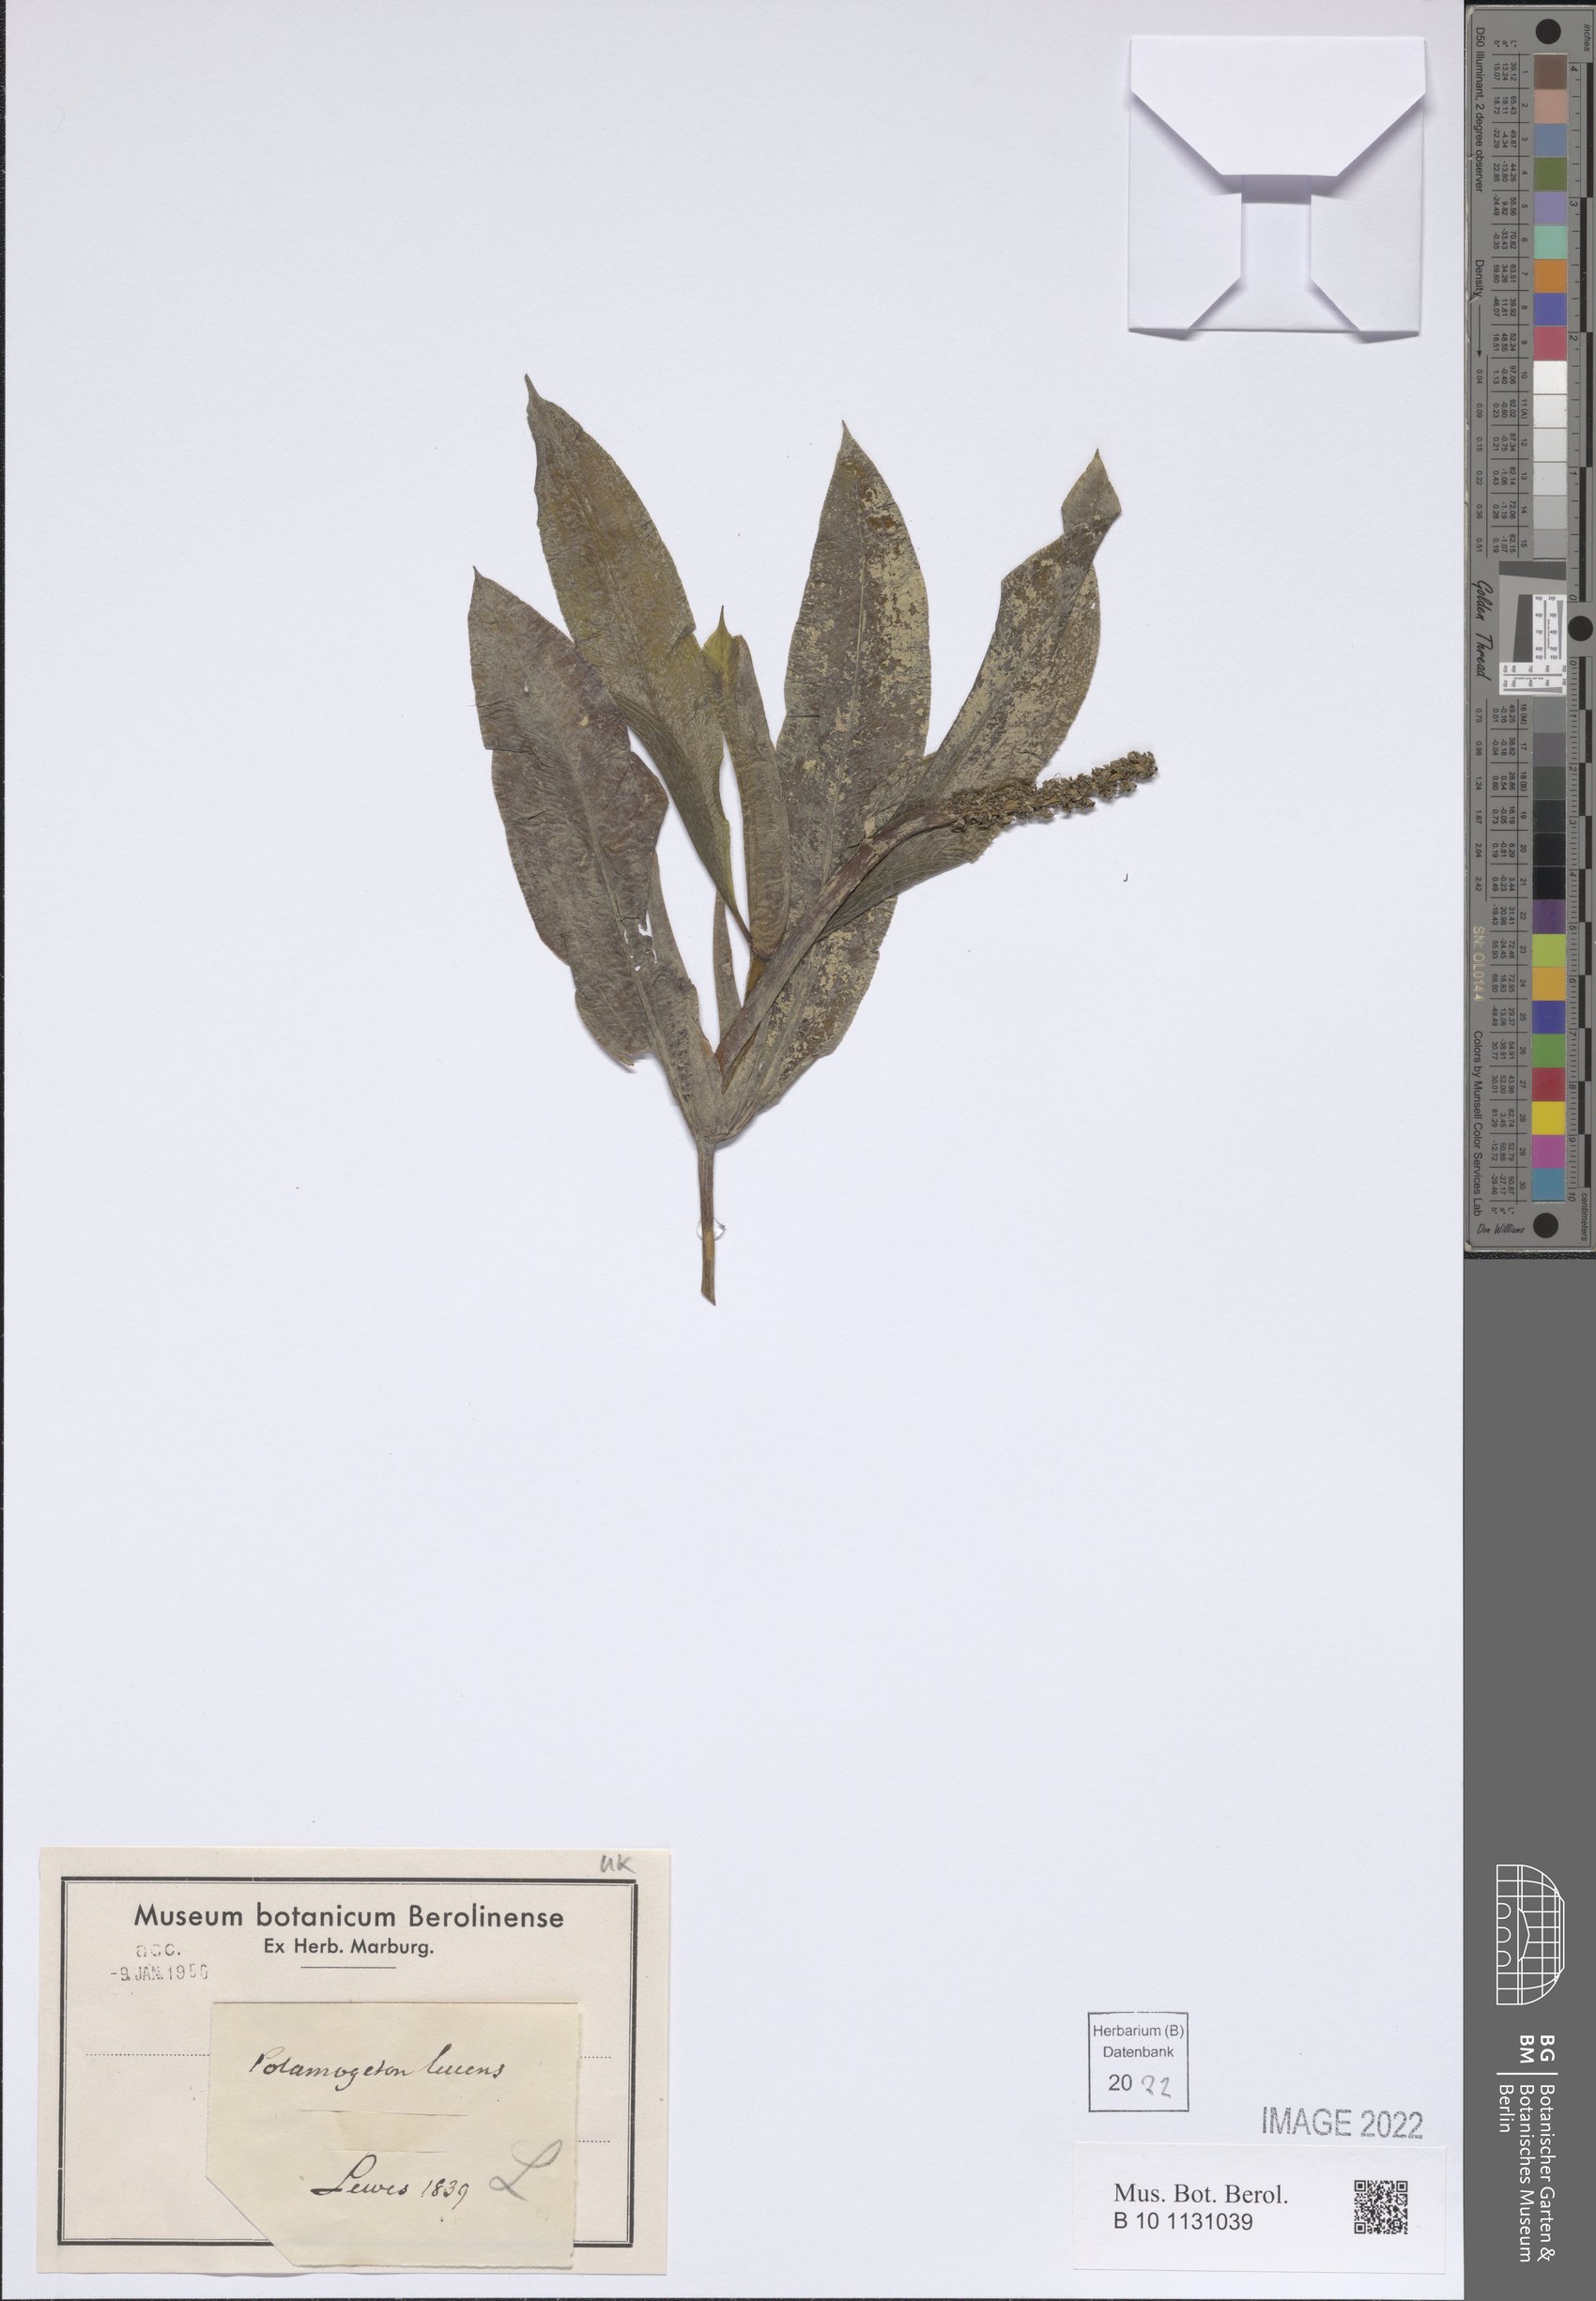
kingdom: Plantae
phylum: Tracheophyta
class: Liliopsida
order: Alismatales
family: Potamogetonaceae
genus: Potamogeton
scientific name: Potamogeton lucens
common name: Shining pondweed
